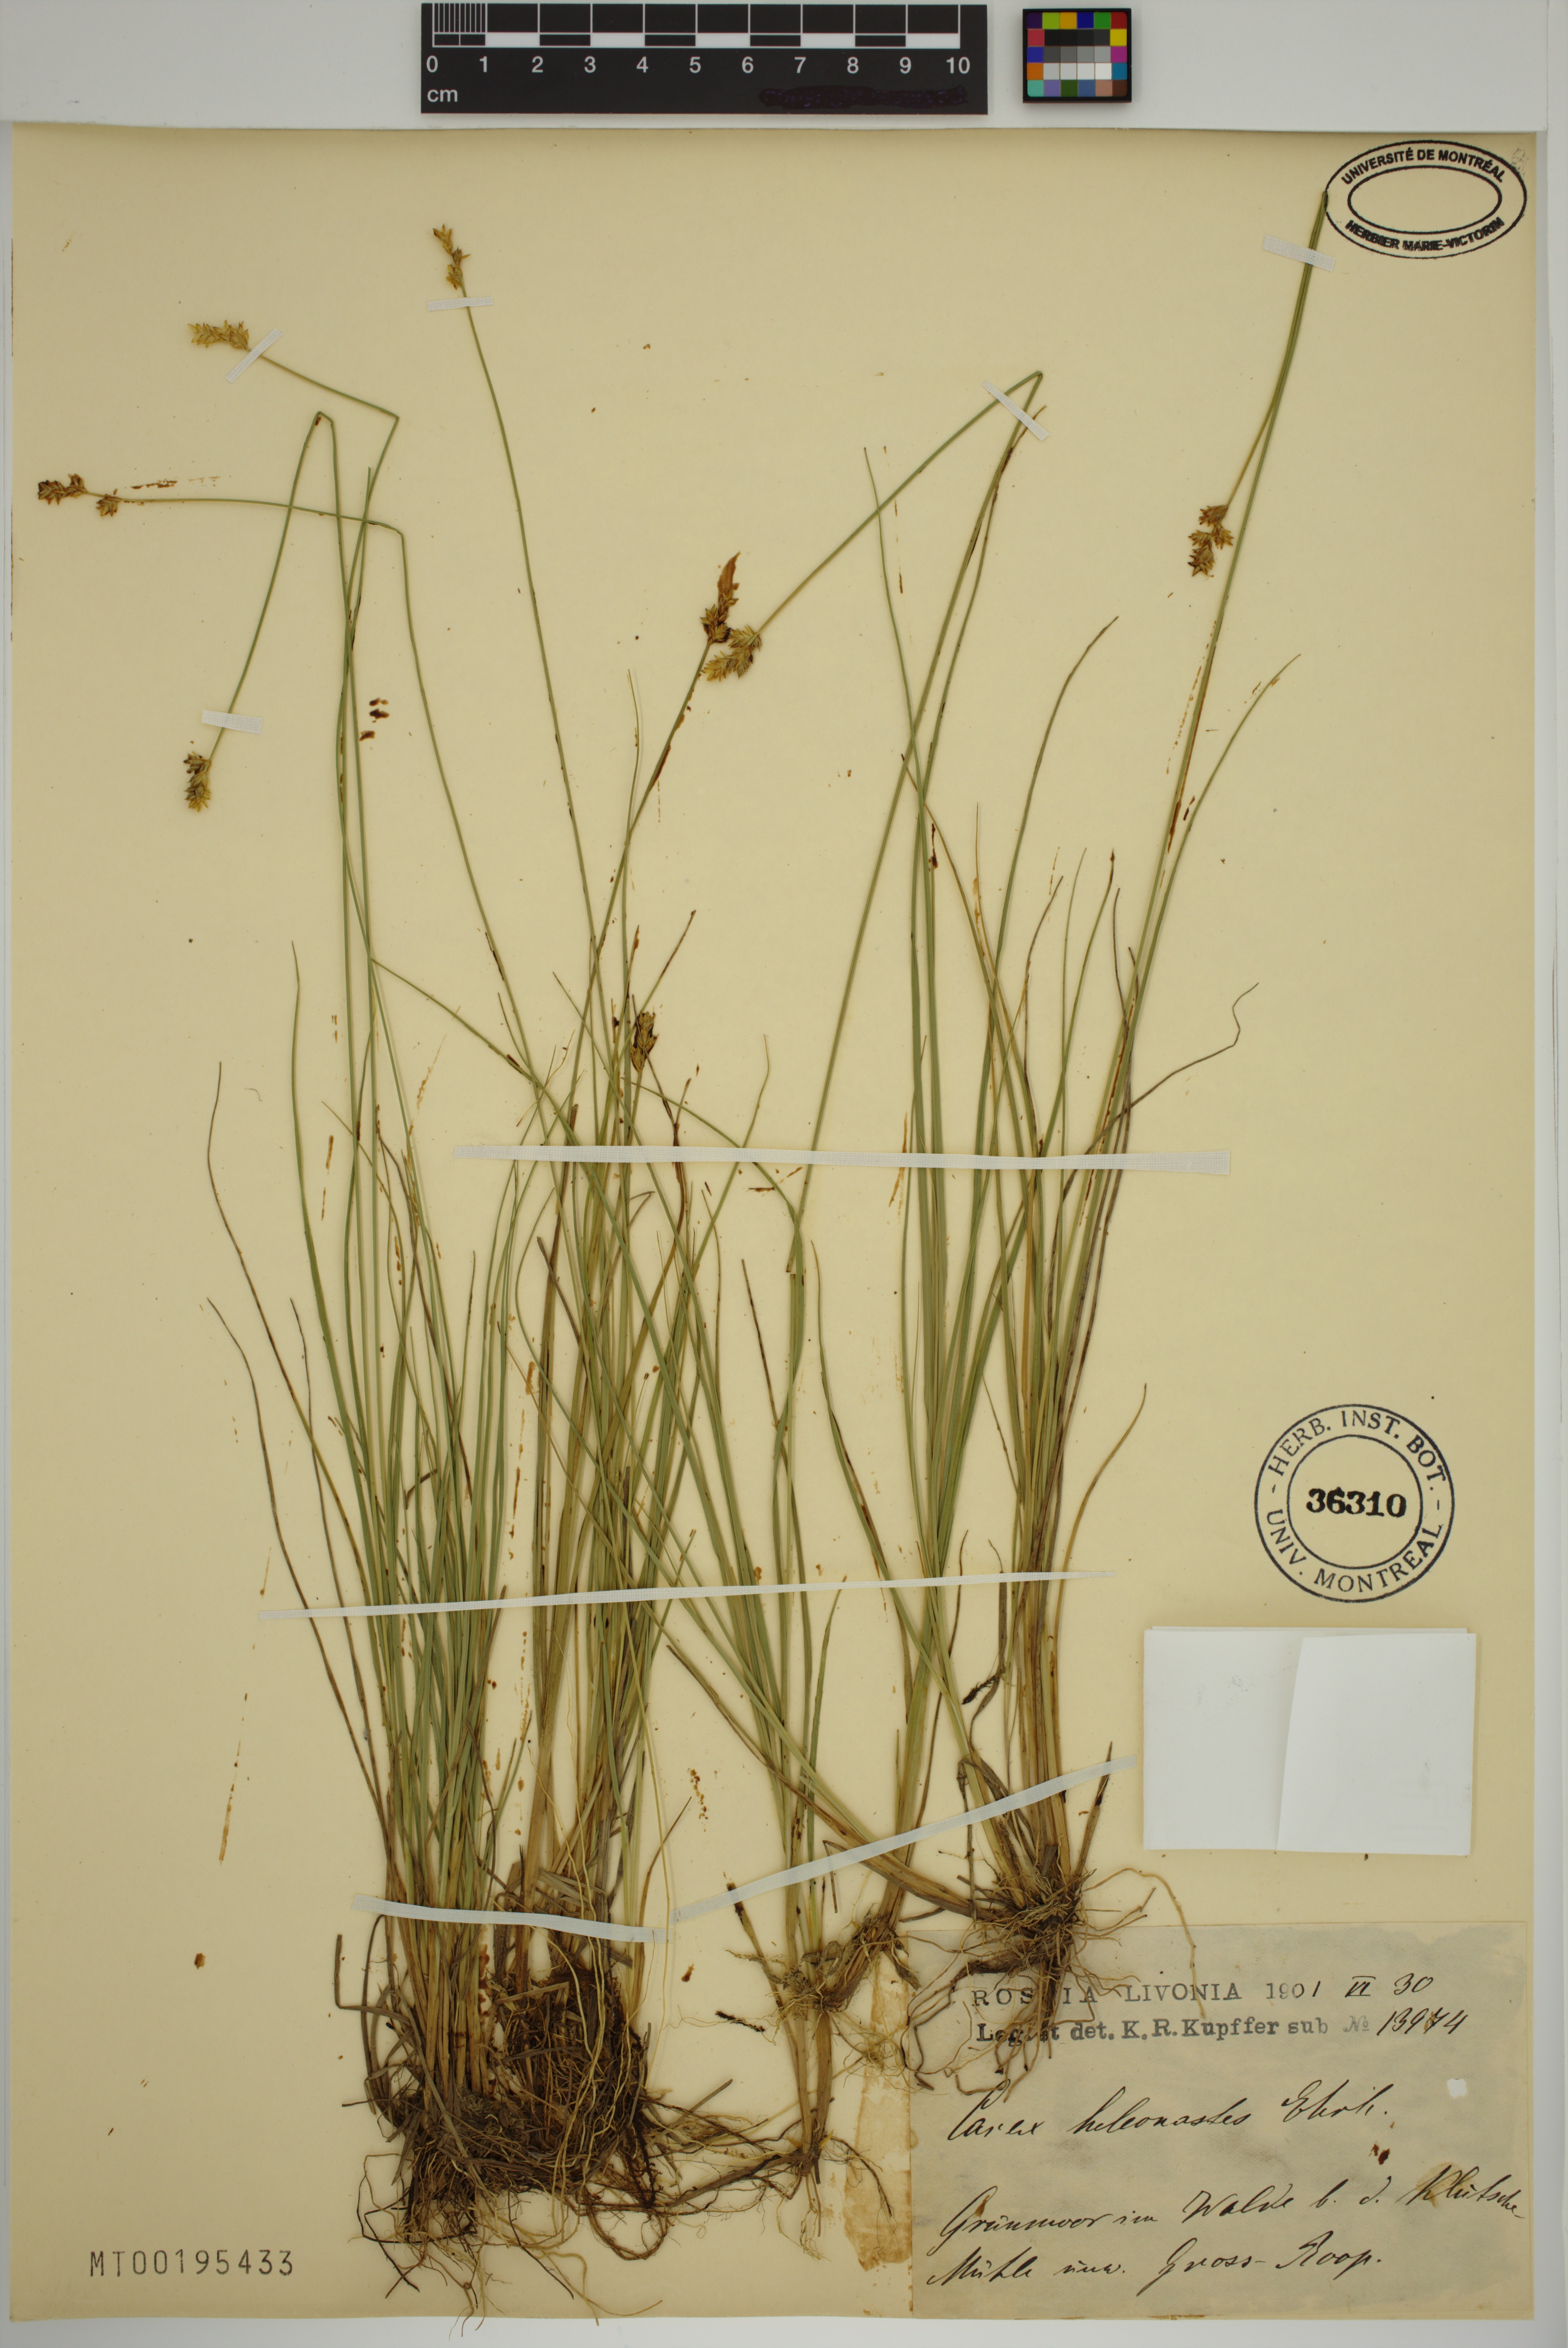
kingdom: Plantae
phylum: Tracheophyta
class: Liliopsida
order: Poales
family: Cyperaceae
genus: Carex
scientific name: Carex heleonastes
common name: Hudson bay sedge
